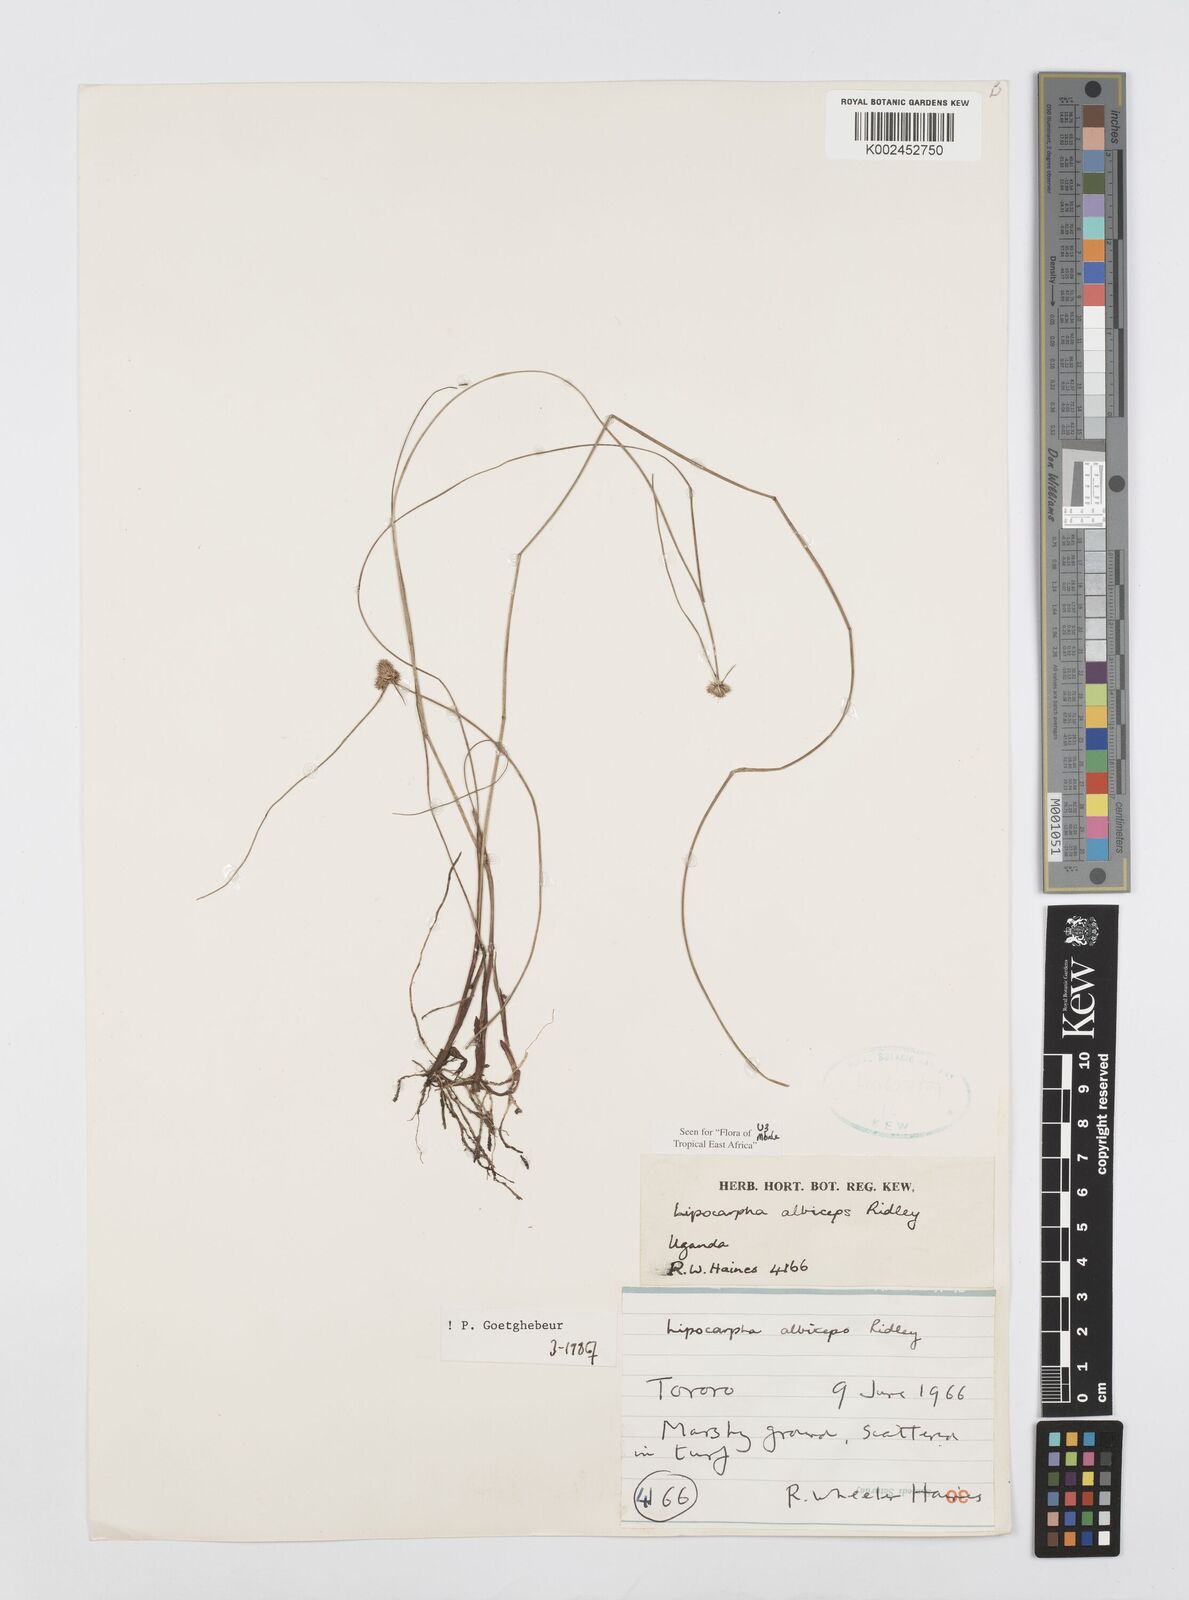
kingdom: Plantae
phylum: Tracheophyta
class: Liliopsida
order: Poales
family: Cyperaceae
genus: Cyperus
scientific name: Cyperus albiceps
